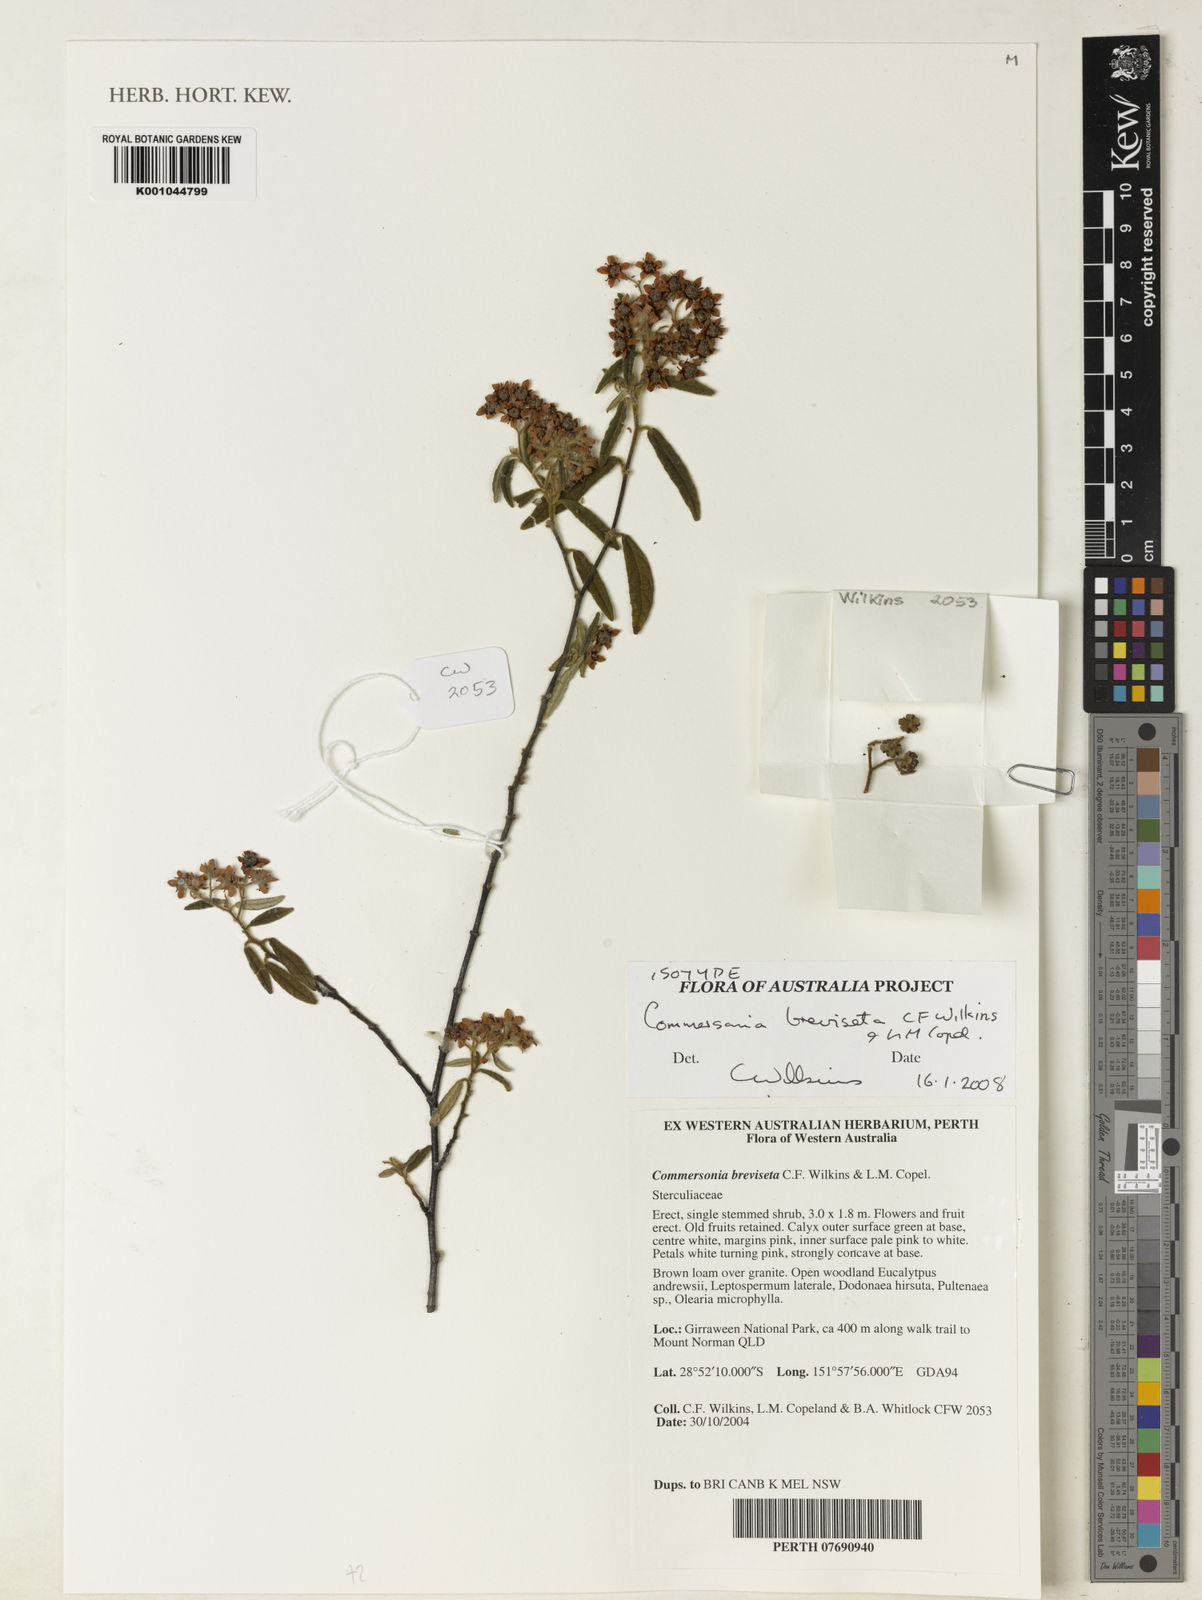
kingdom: Plantae
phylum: Tracheophyta
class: Magnoliopsida
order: Malvales
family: Malvaceae
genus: Commersonia
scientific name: Commersonia breviseta
